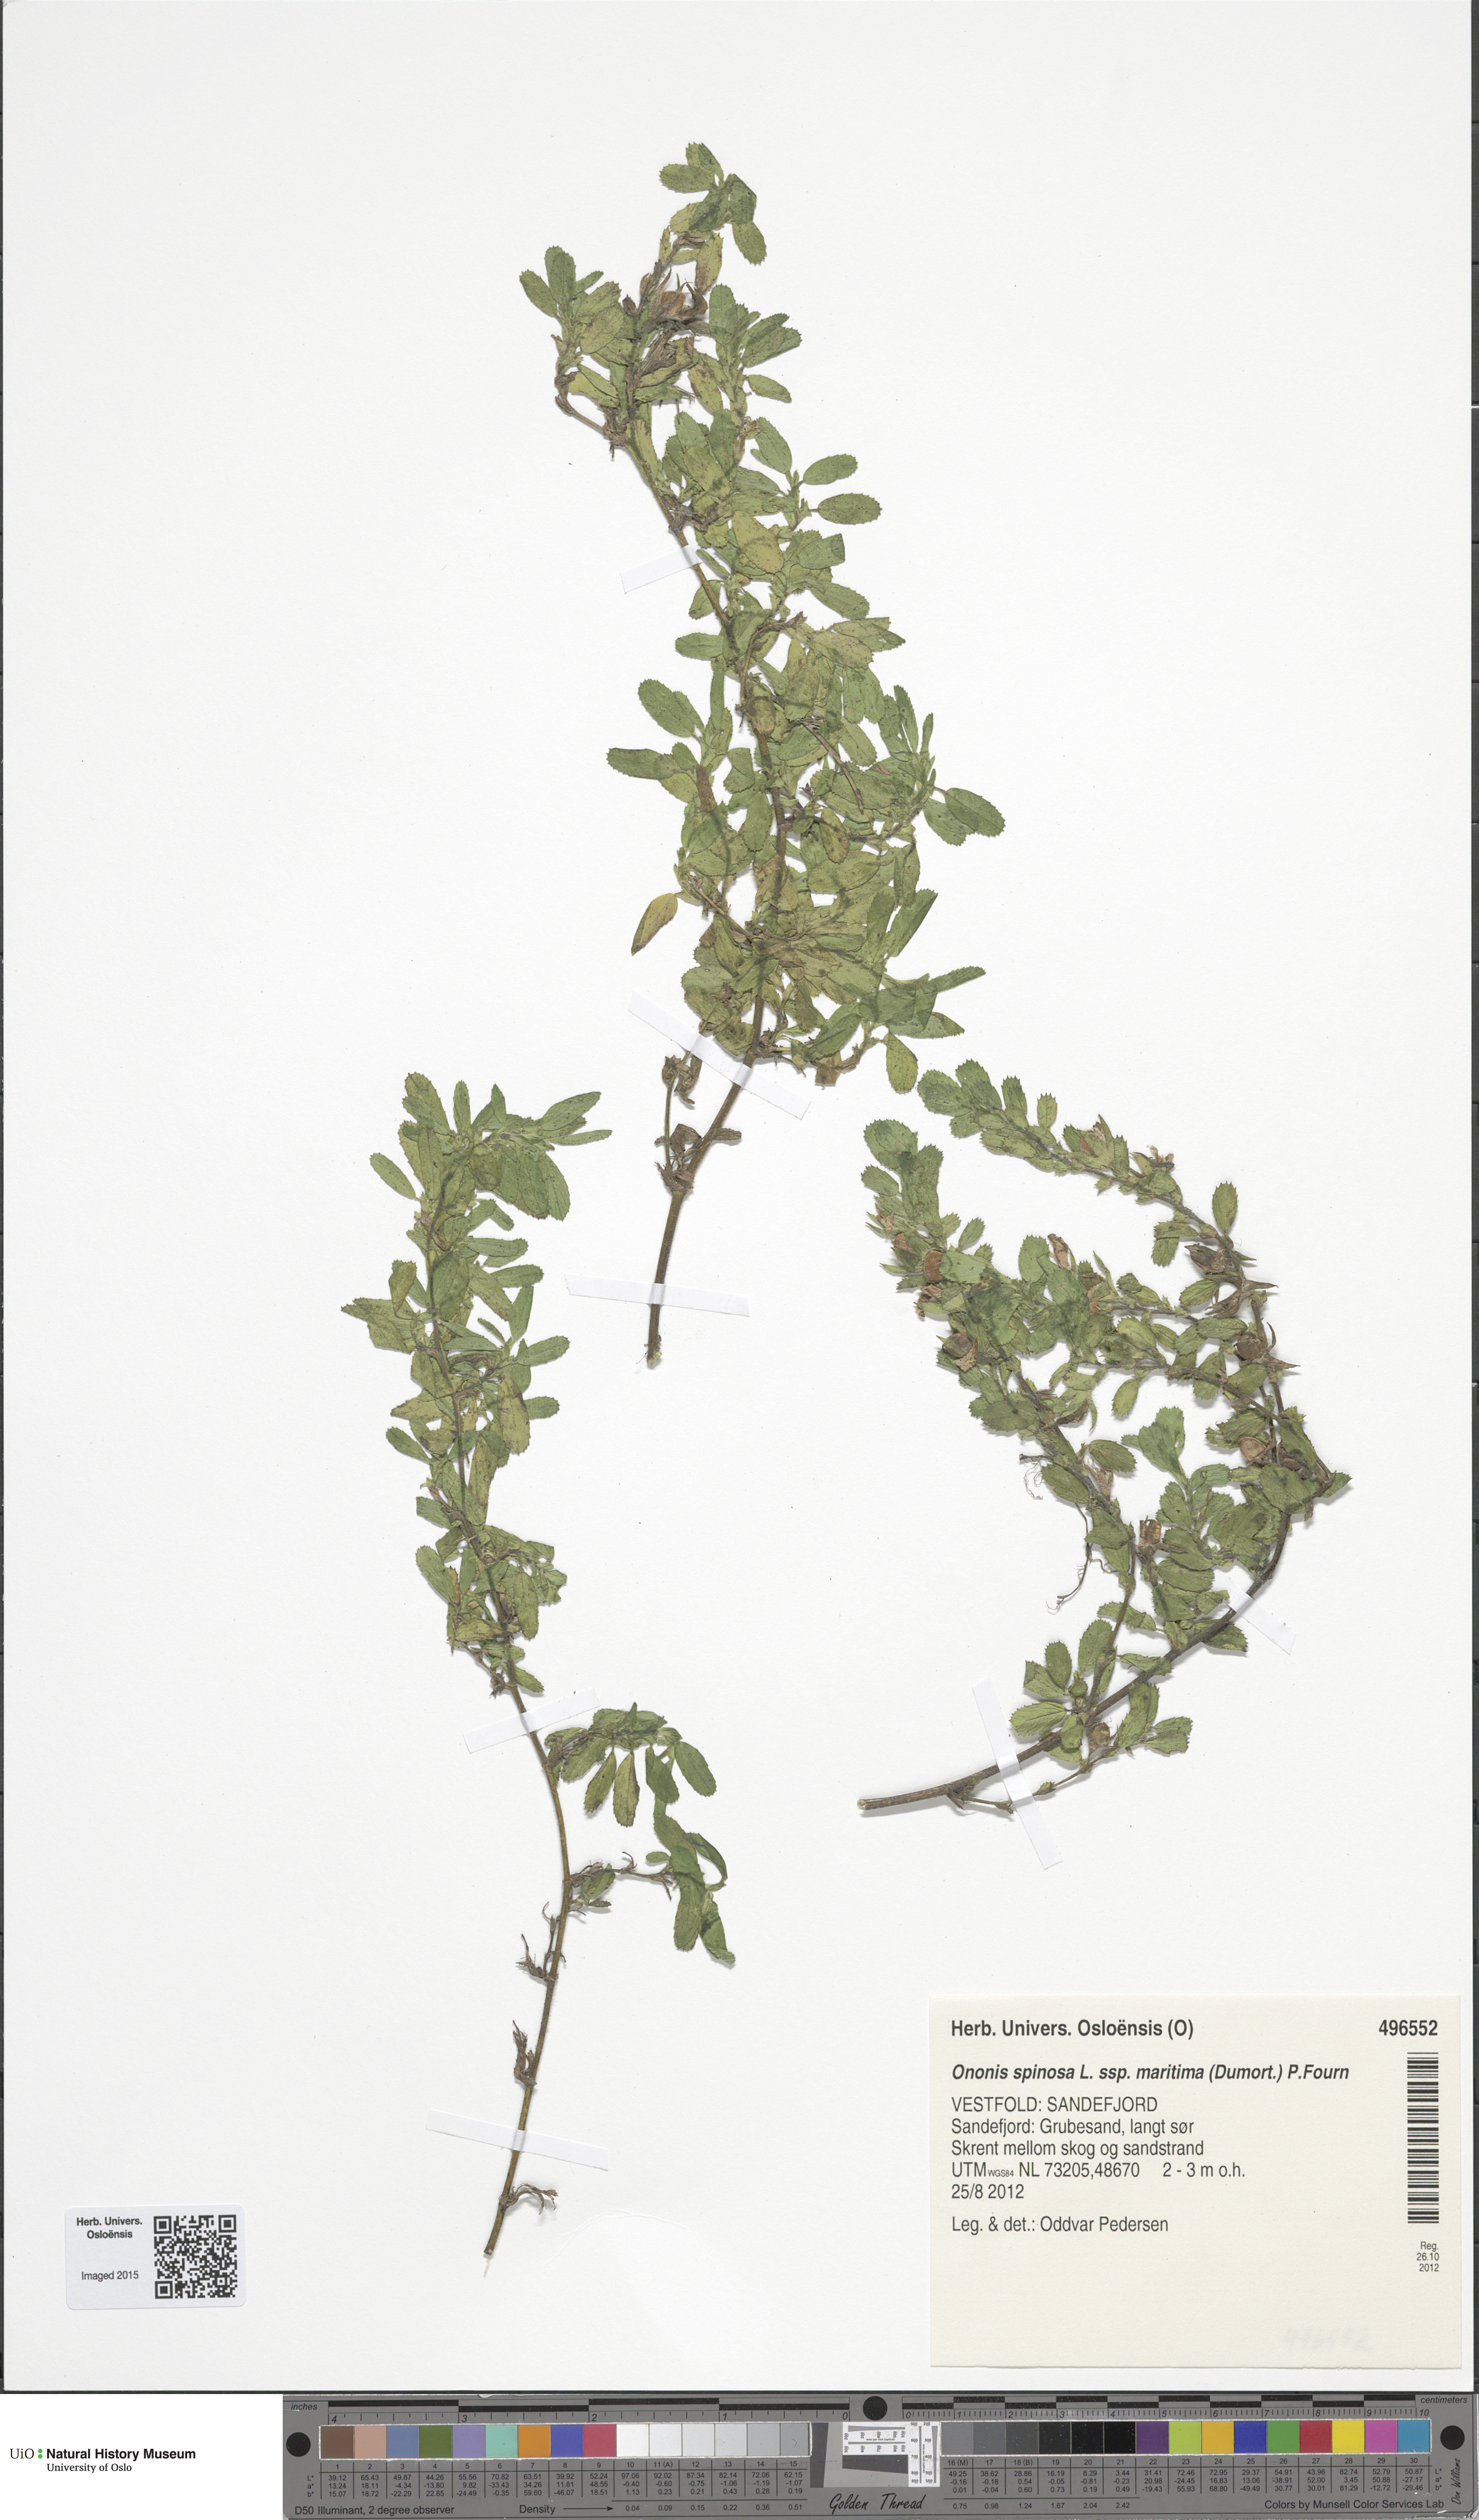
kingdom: Plantae
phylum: Tracheophyta
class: Magnoliopsida
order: Fabales
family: Fabaceae
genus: Ononis
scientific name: Ononis spinosa
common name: Spiny restharrow
